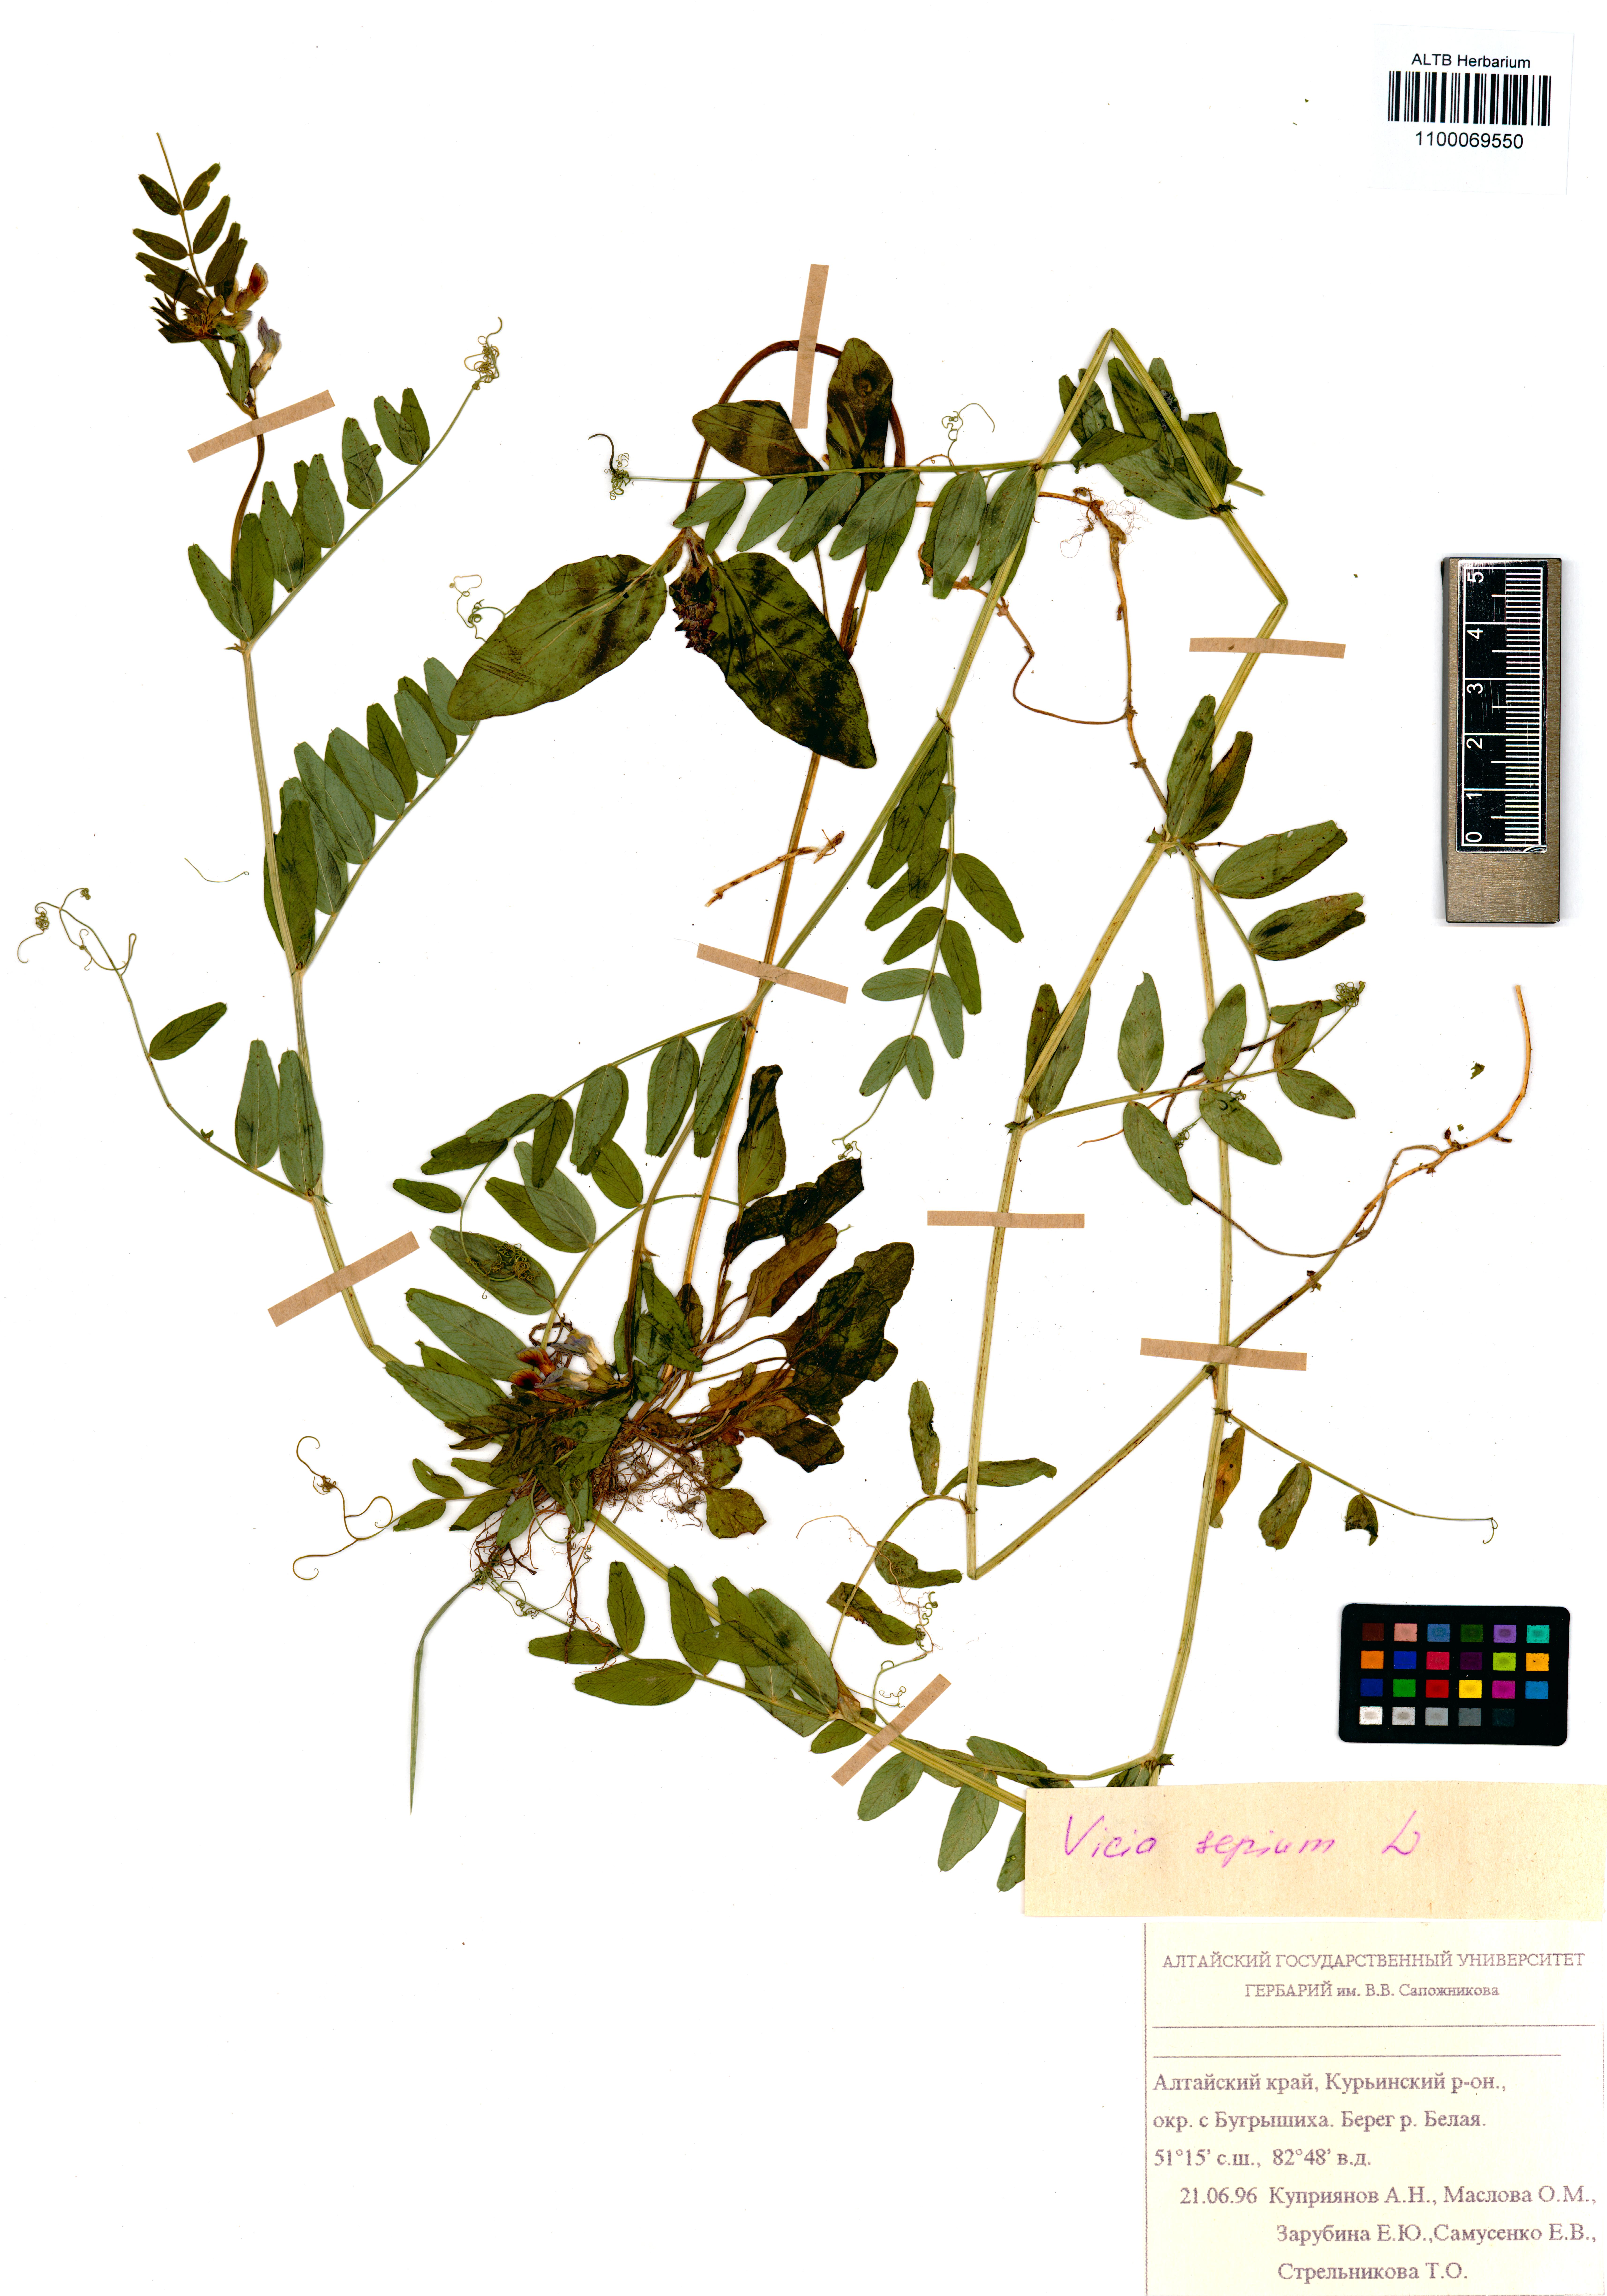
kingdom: Plantae
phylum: Tracheophyta
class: Magnoliopsida
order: Fabales
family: Fabaceae
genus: Vicia
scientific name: Vicia sepium
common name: Bush vetch
